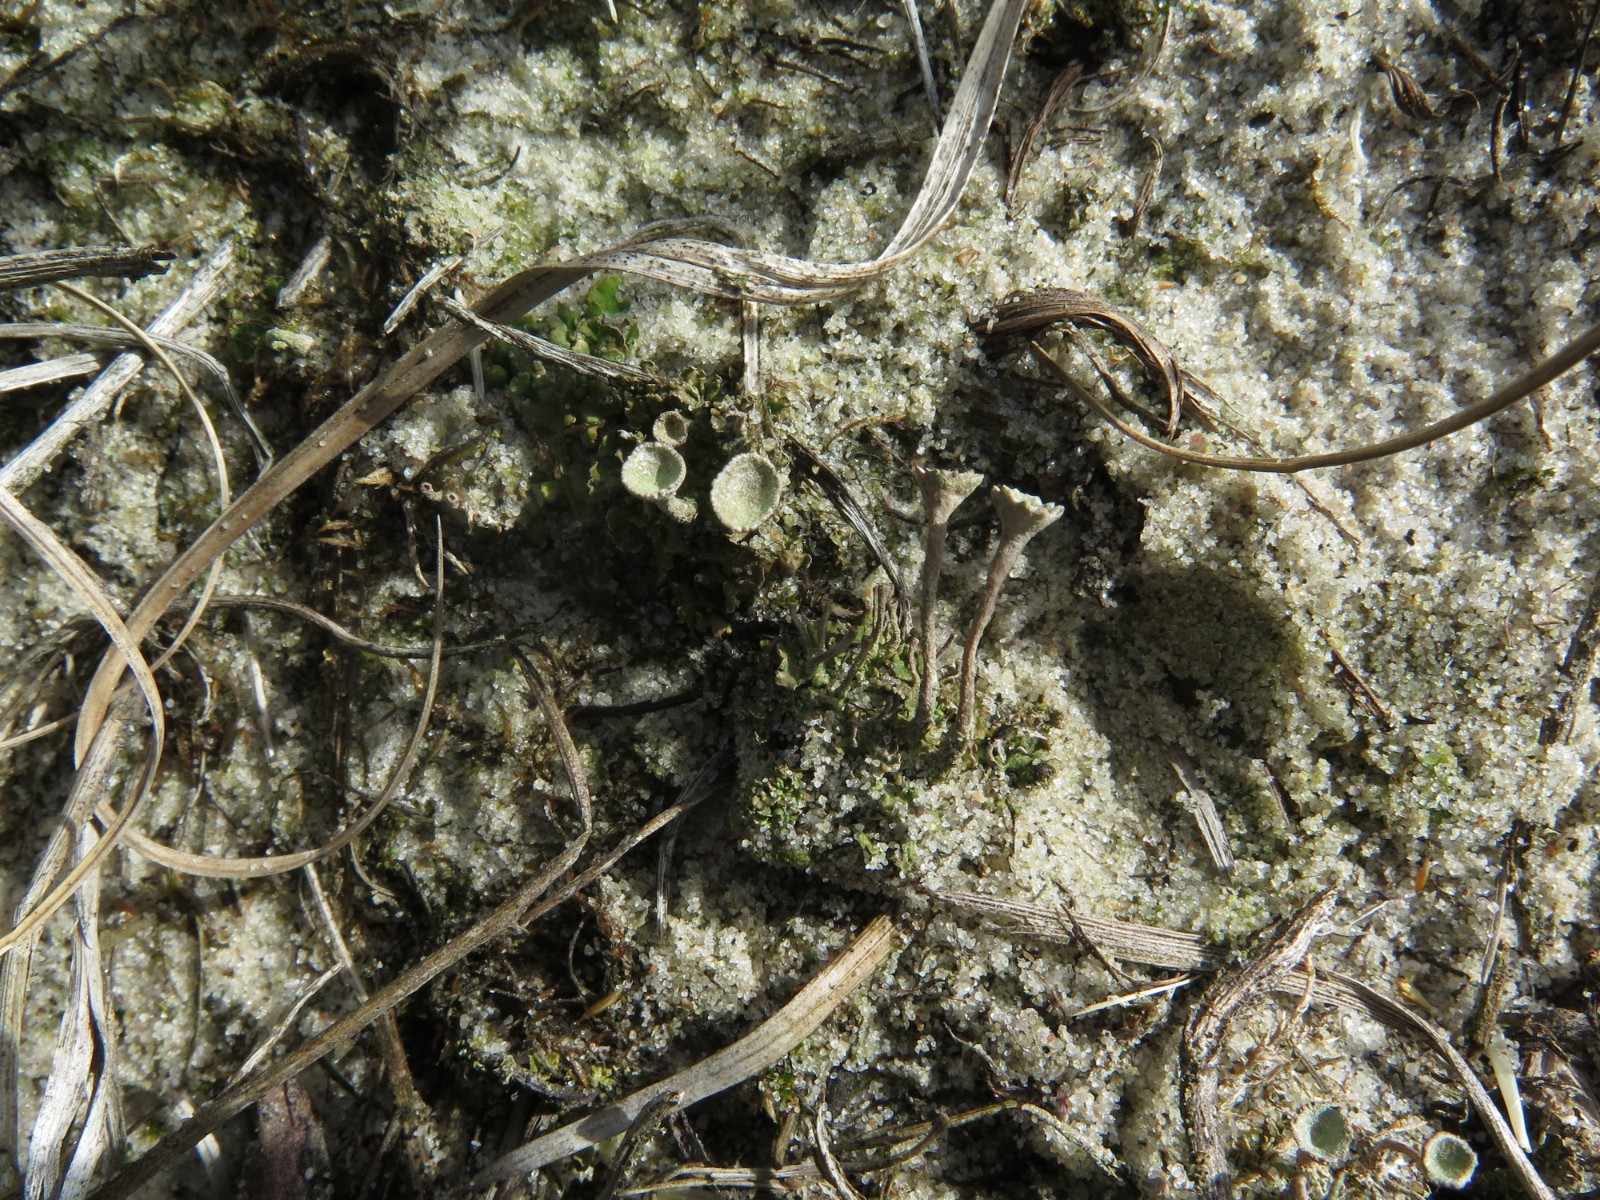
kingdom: Fungi
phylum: Ascomycota
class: Lecanoromycetes
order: Lecanorales
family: Cladoniaceae
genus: Cladonia
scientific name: Cladonia fimbriata
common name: bleggrøn bægerlav
